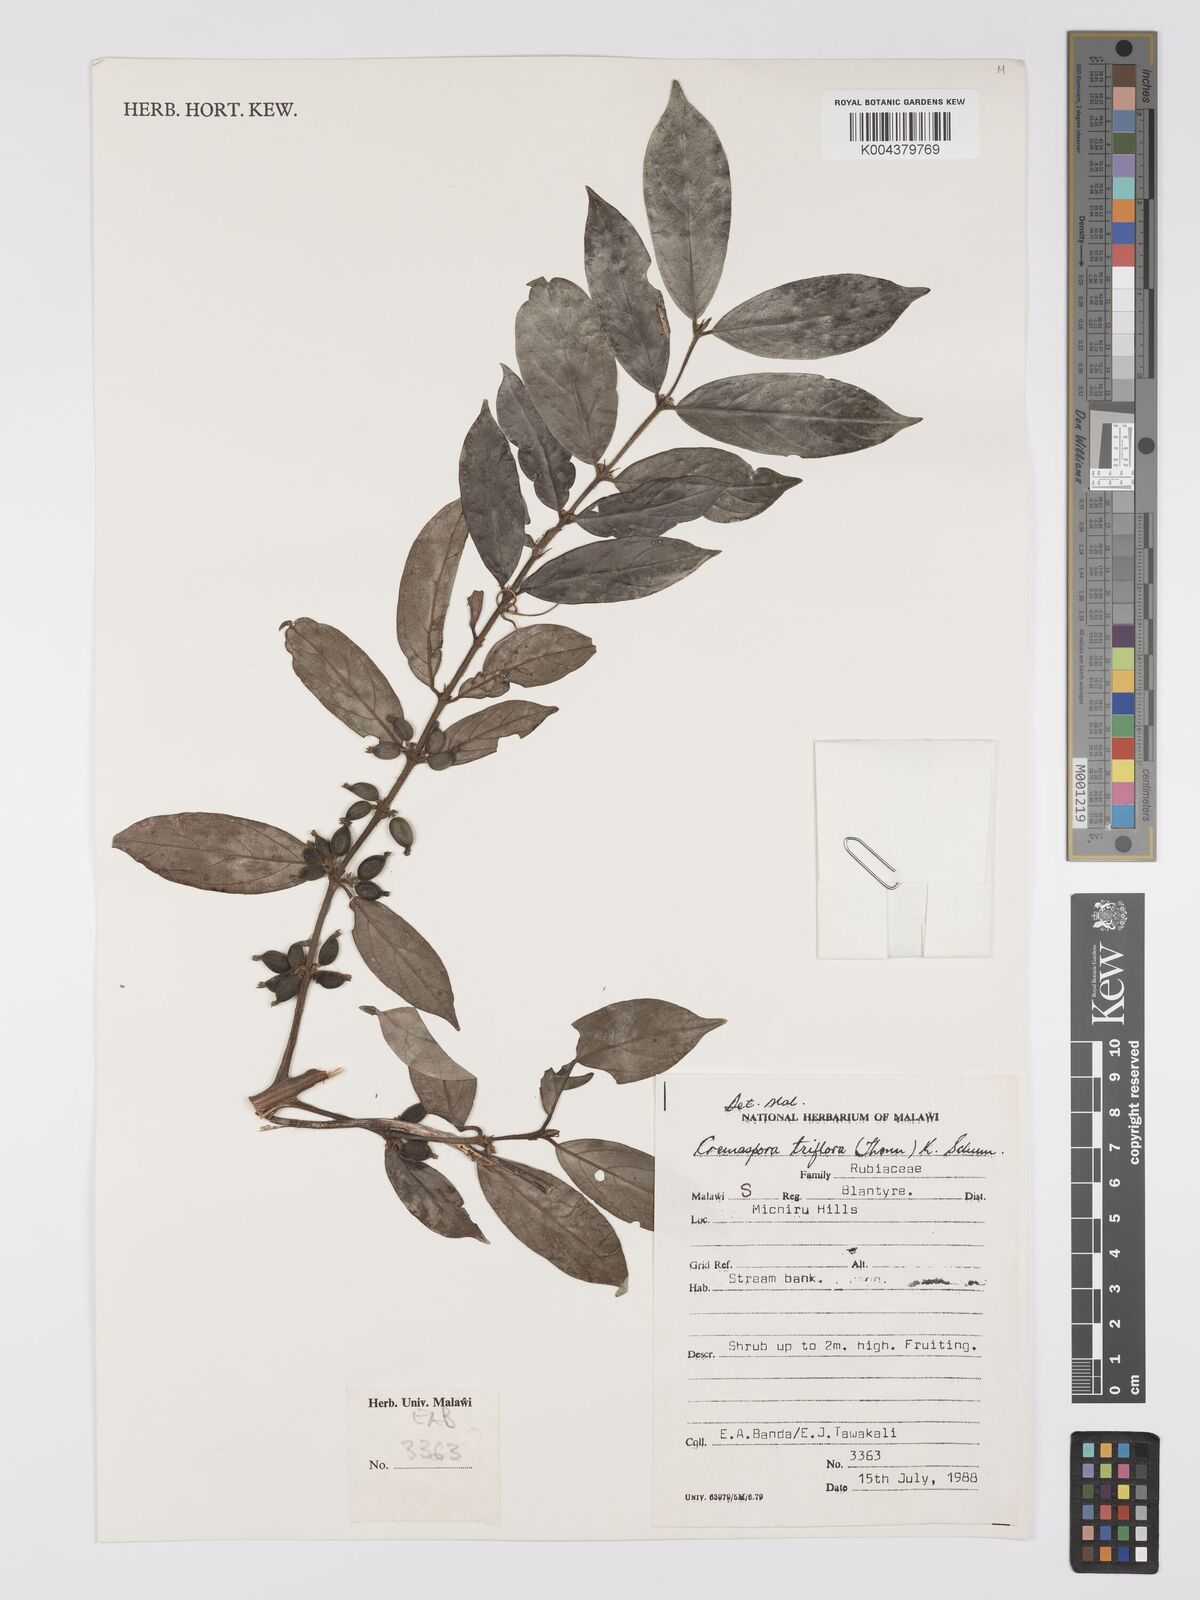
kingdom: Plantae
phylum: Tracheophyta
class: Magnoliopsida
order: Gentianales
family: Rubiaceae
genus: Cremaspora
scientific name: Cremaspora triflora
